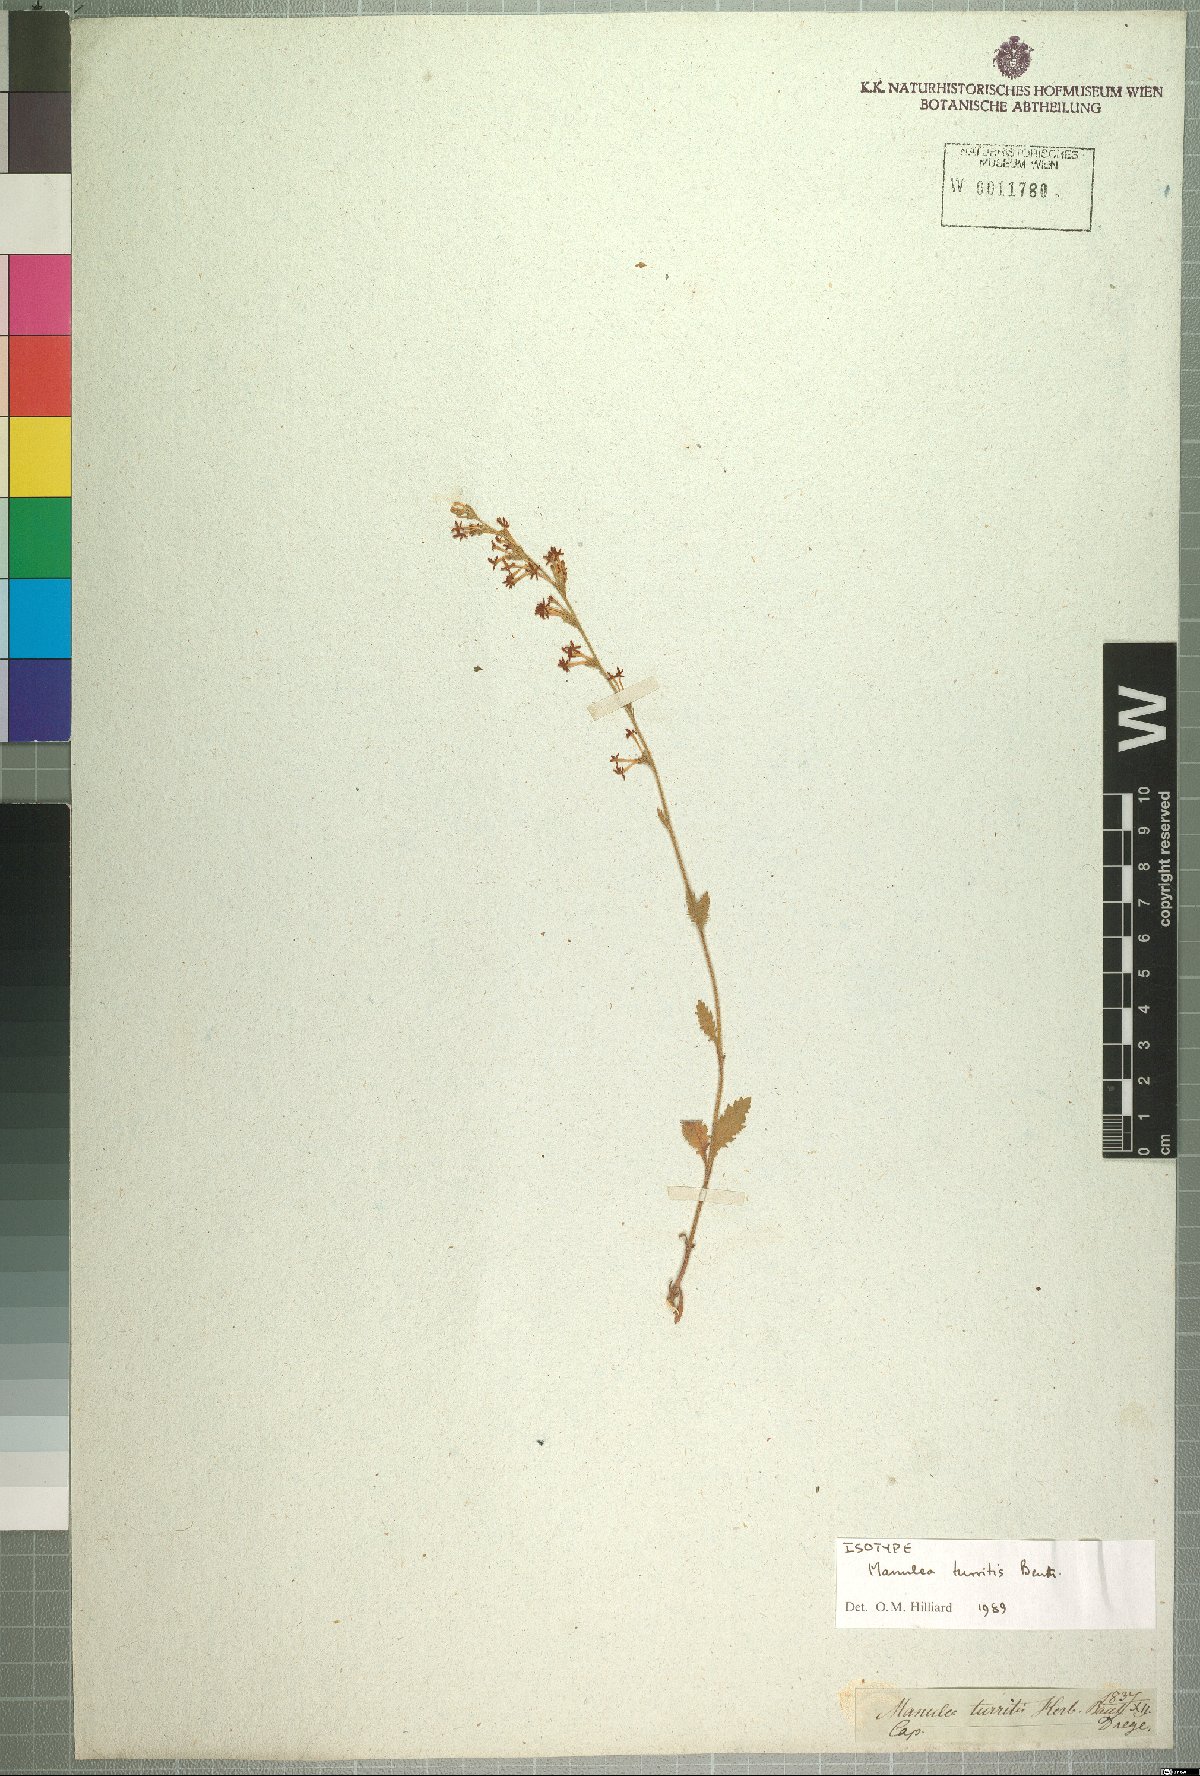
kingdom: Plantae
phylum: Tracheophyta
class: Magnoliopsida
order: Lamiales
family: Scrophulariaceae
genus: Manulea
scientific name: Manulea turritis
